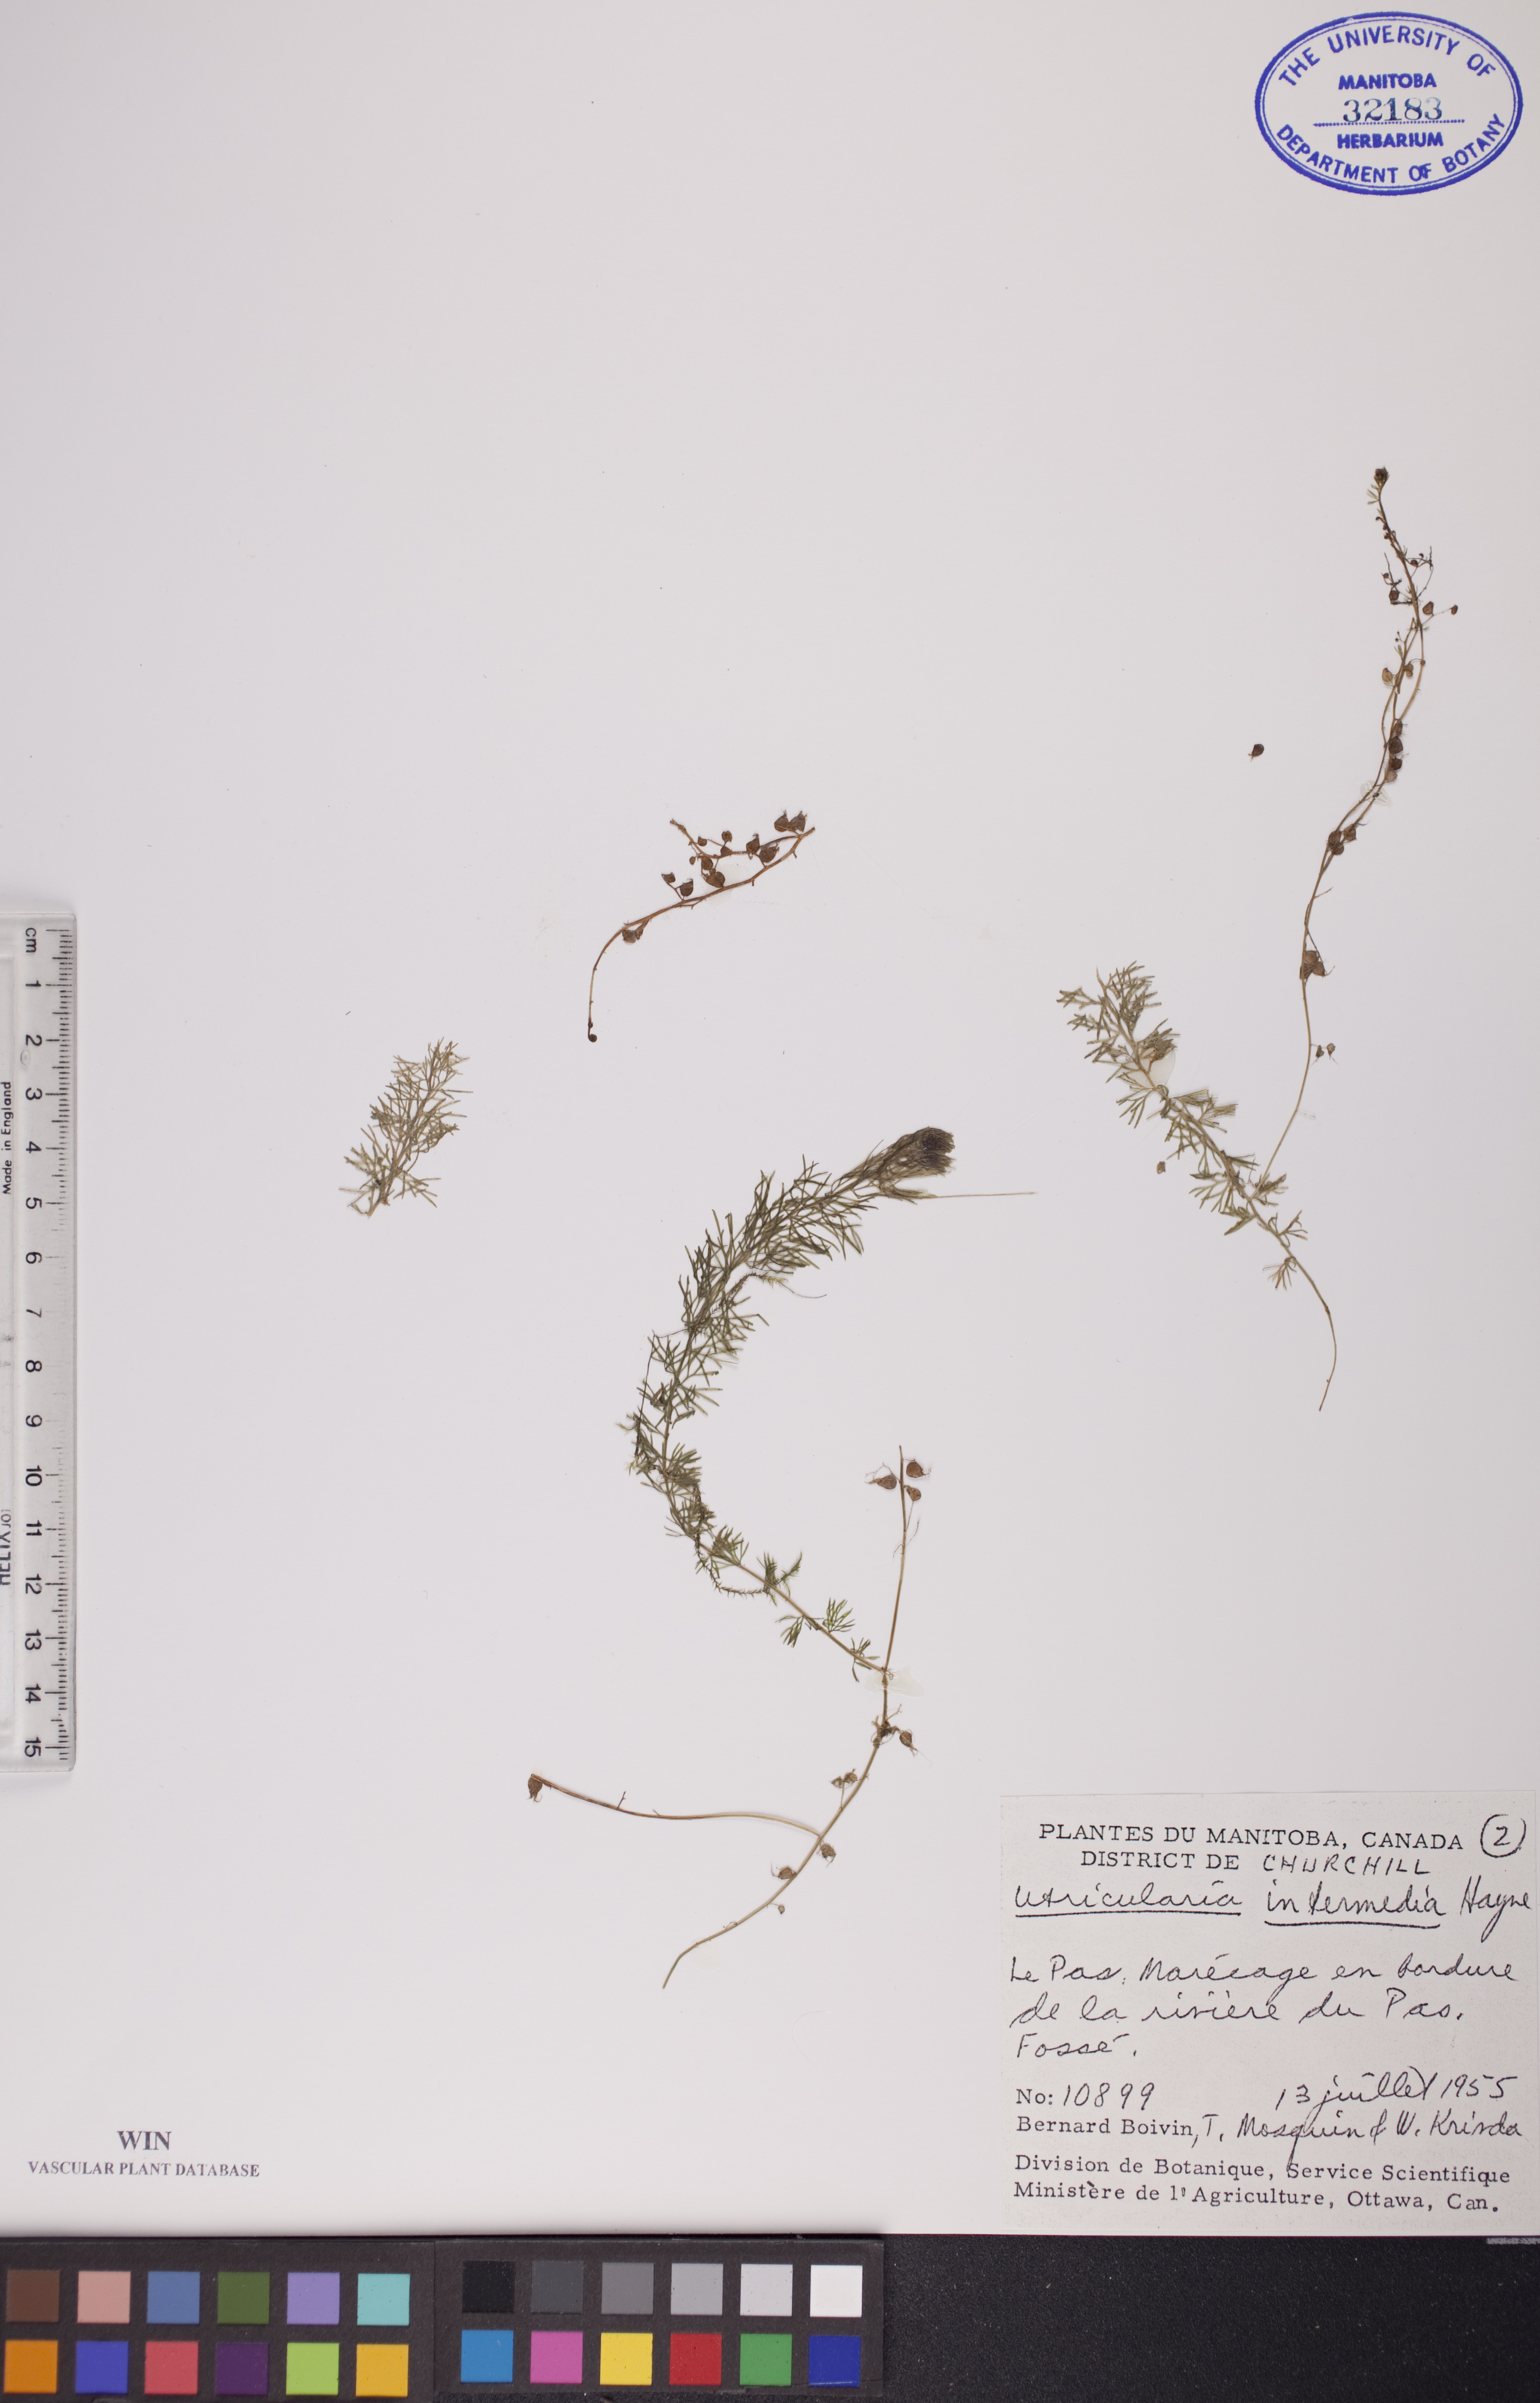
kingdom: Plantae
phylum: Tracheophyta
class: Magnoliopsida
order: Lamiales
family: Lentibulariaceae
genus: Utricularia
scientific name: Utricularia intermedia
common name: Intermediate bladderwort
